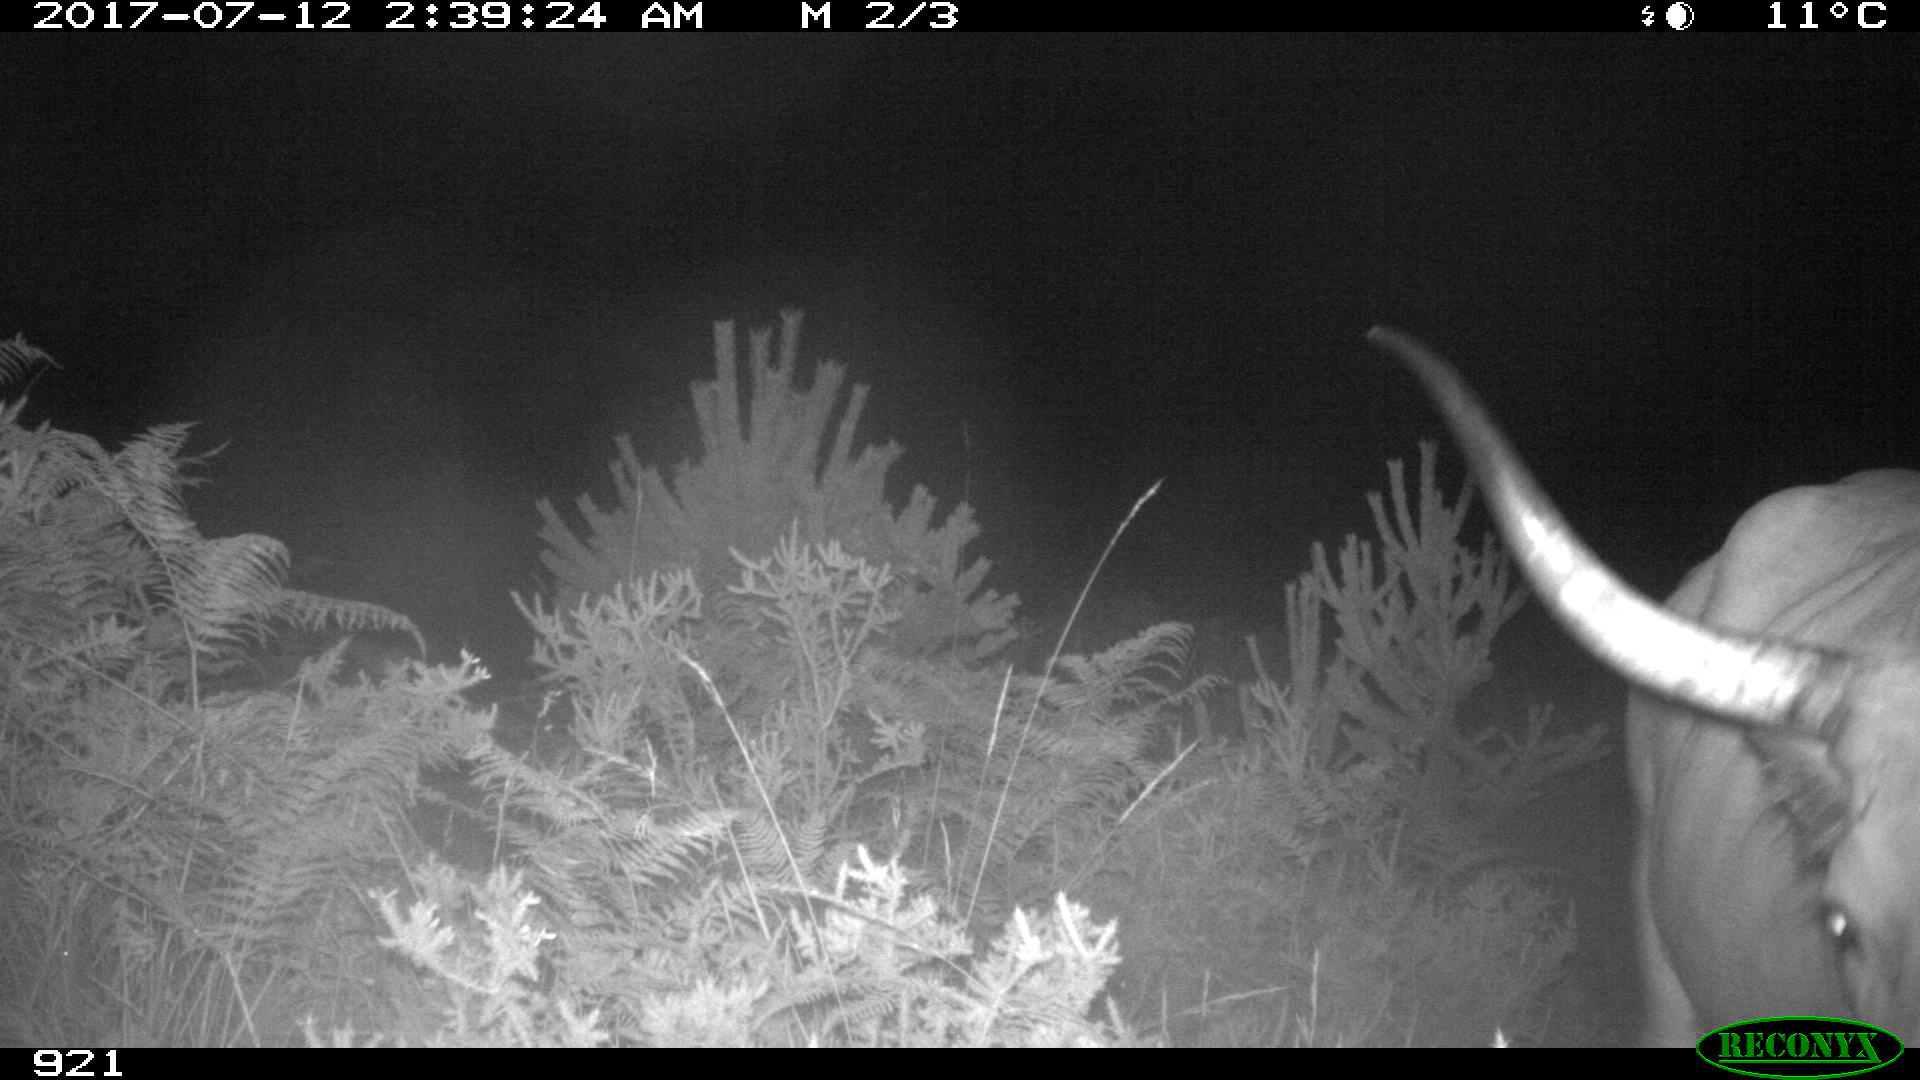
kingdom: Animalia
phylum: Chordata
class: Mammalia
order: Artiodactyla
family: Bovidae
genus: Bos
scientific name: Bos taurus
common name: Domesticated cattle
